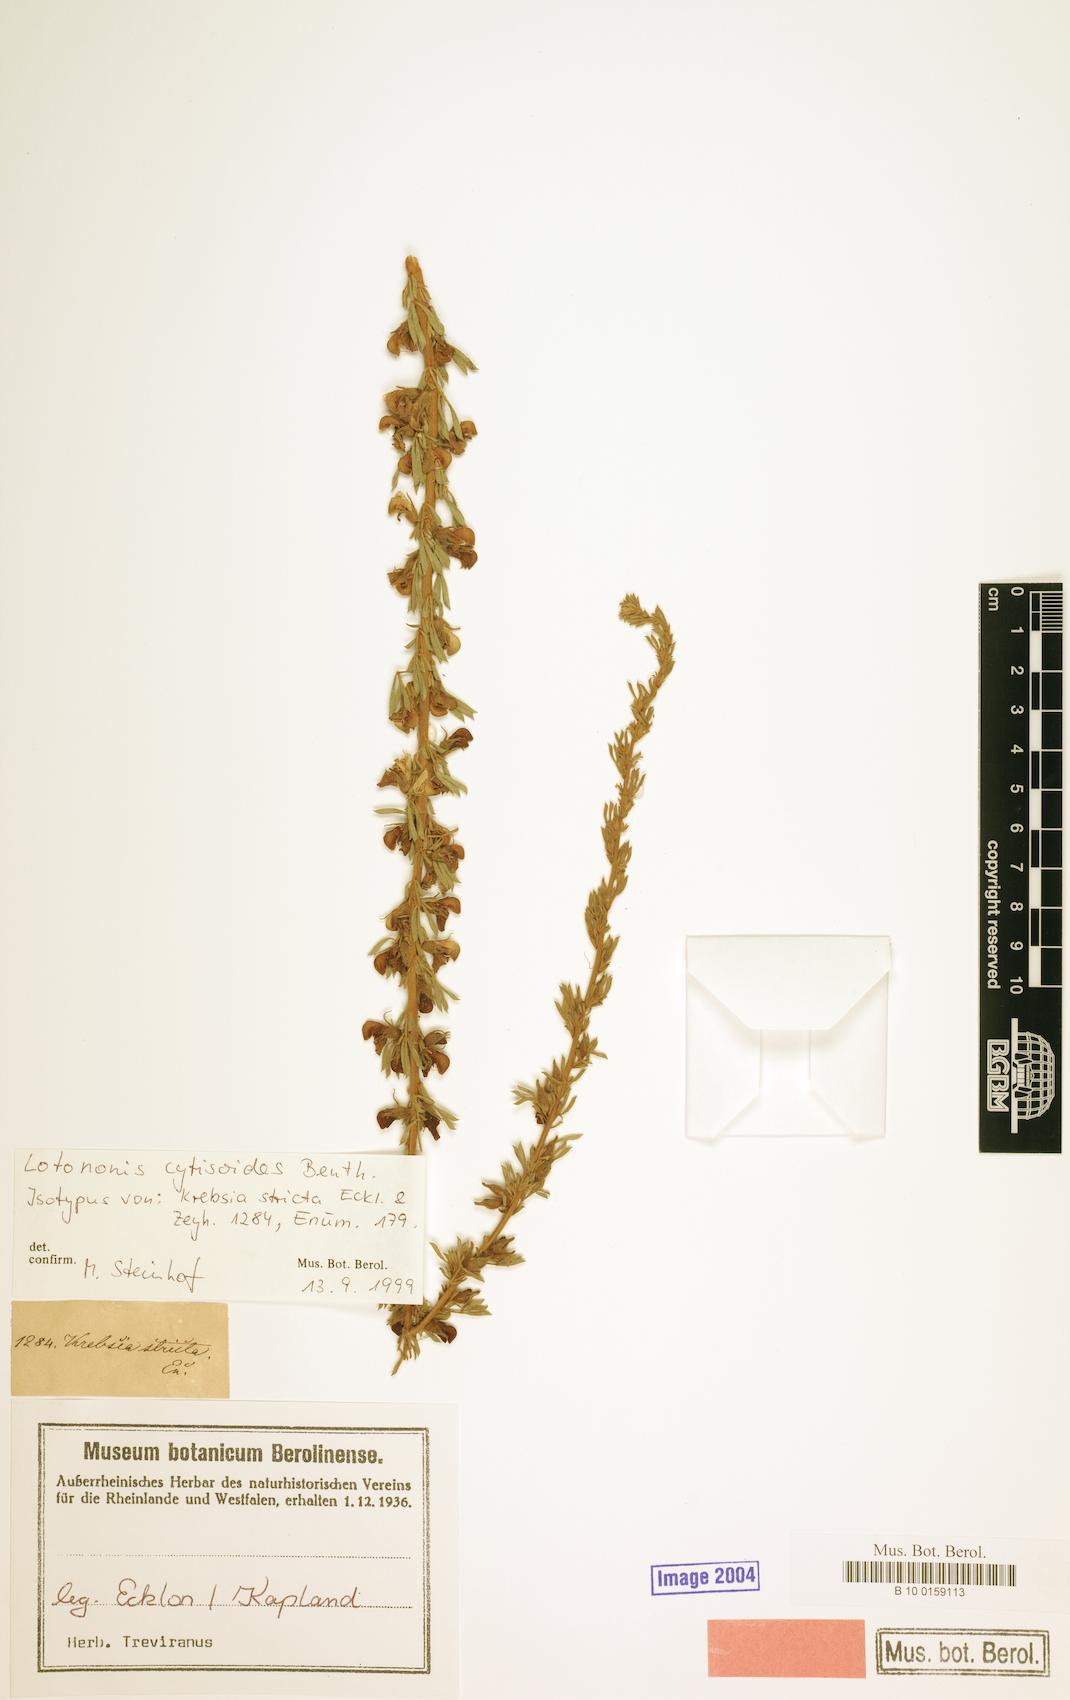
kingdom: Plantae
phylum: Tracheophyta
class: Magnoliopsida
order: Fabales
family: Fabaceae
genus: Lotononis
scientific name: Lotononis stricta
